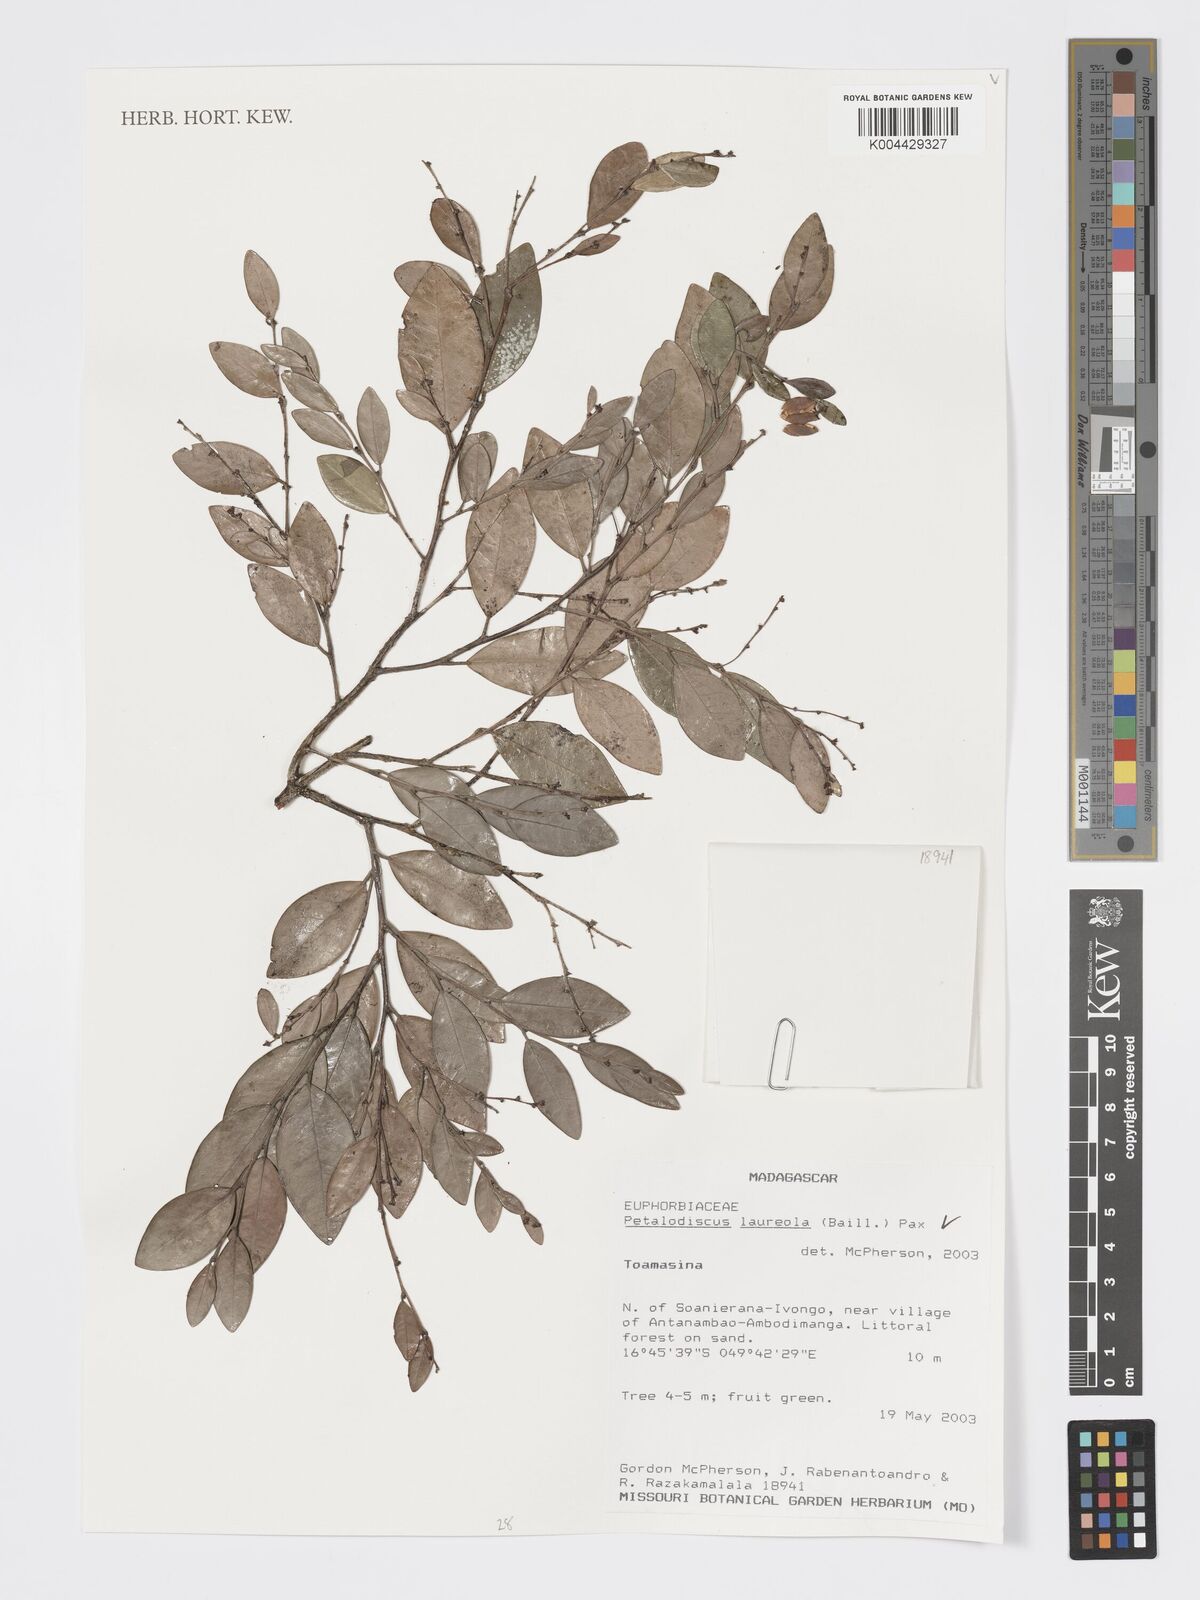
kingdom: Plantae
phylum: Tracheophyta
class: Magnoliopsida
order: Malpighiales
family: Phyllanthaceae
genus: Wielandia
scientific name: Wielandia laureola
